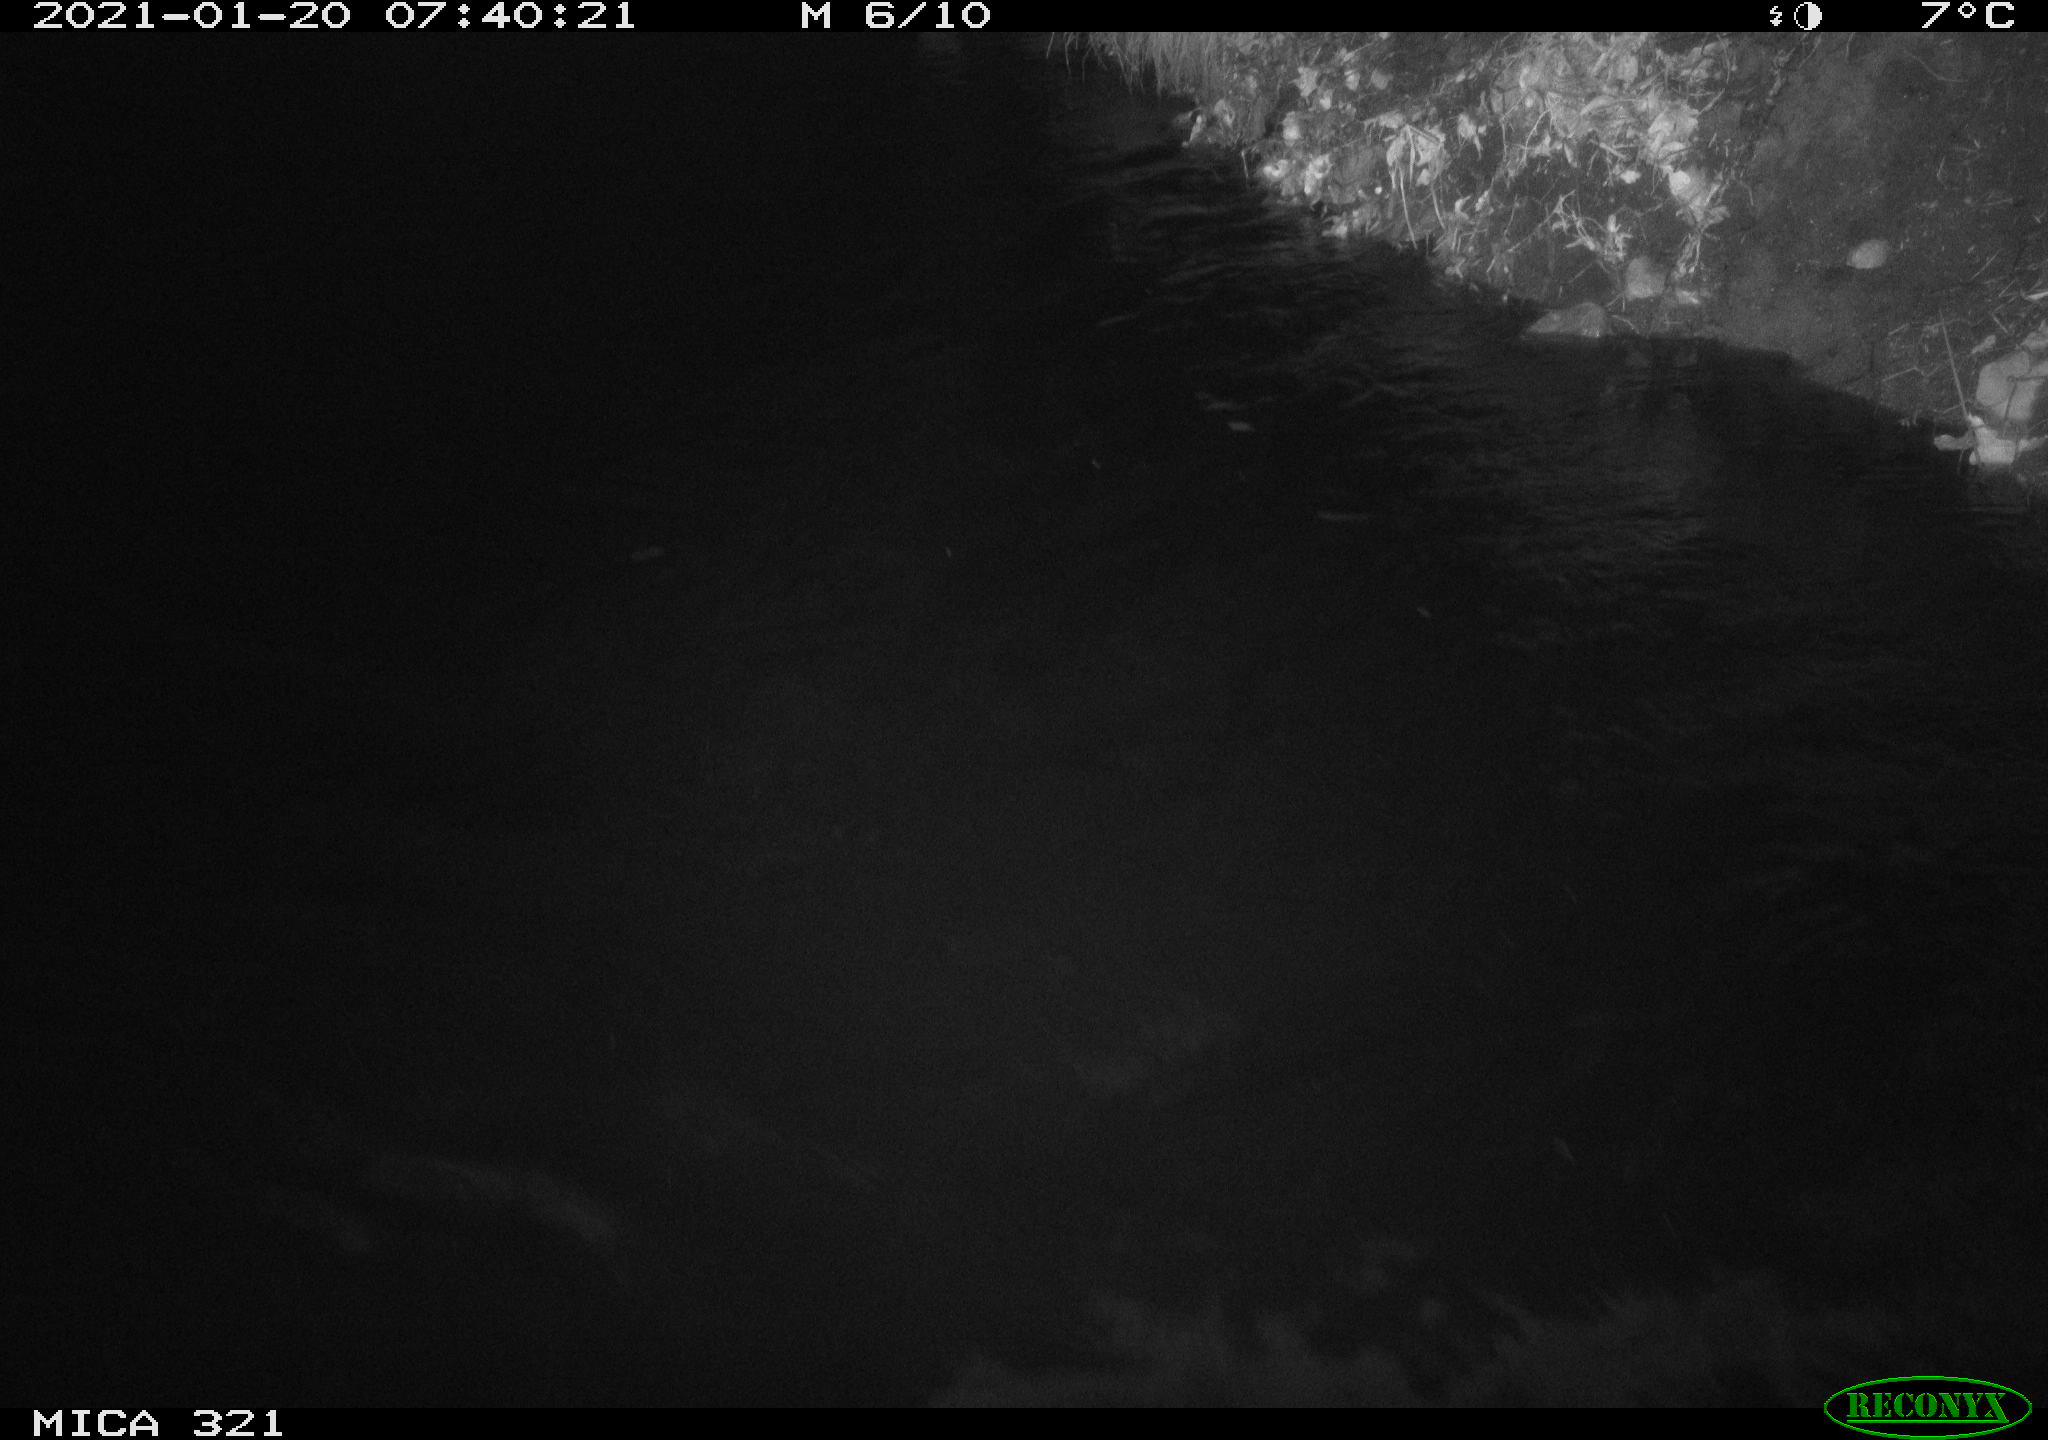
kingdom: Animalia
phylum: Chordata
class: Aves
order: Anseriformes
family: Anatidae
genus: Anas
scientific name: Anas platyrhynchos
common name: Mallard
